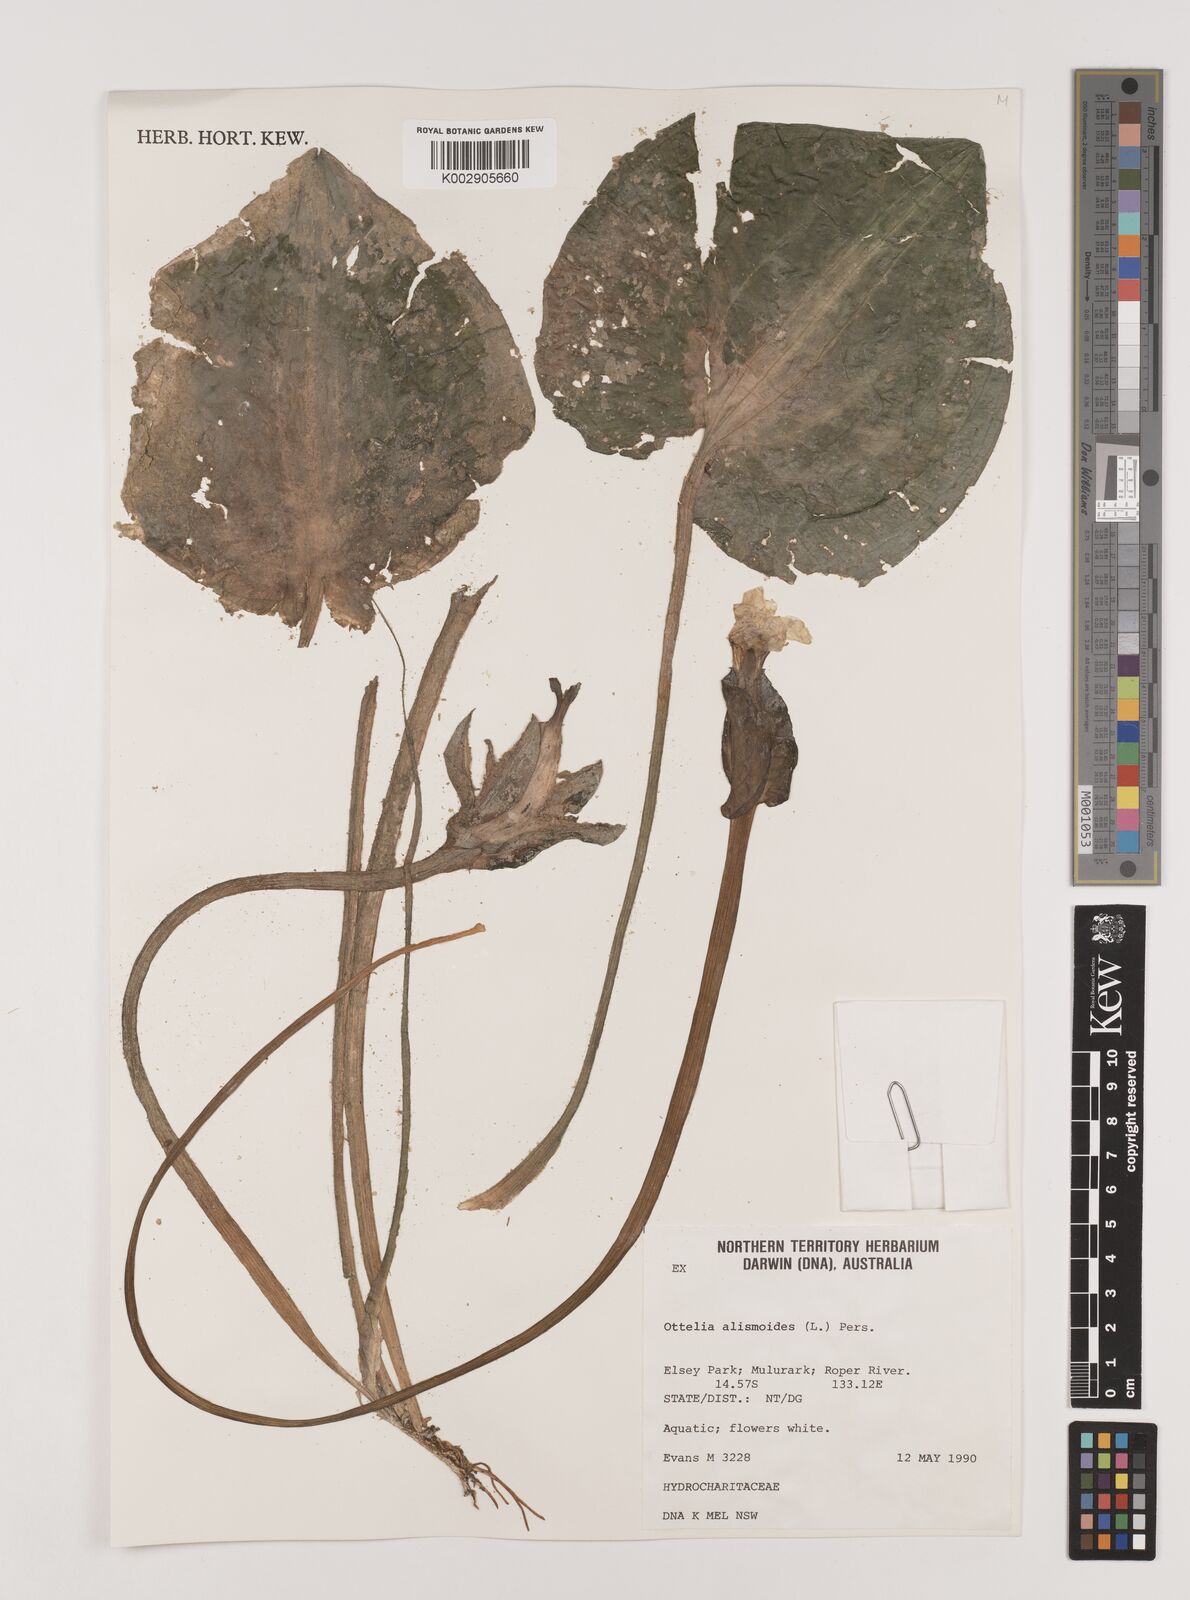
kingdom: Plantae
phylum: Tracheophyta
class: Liliopsida
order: Alismatales
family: Hydrocharitaceae
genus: Ottelia
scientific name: Ottelia alismoides
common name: Duck-lettuce
